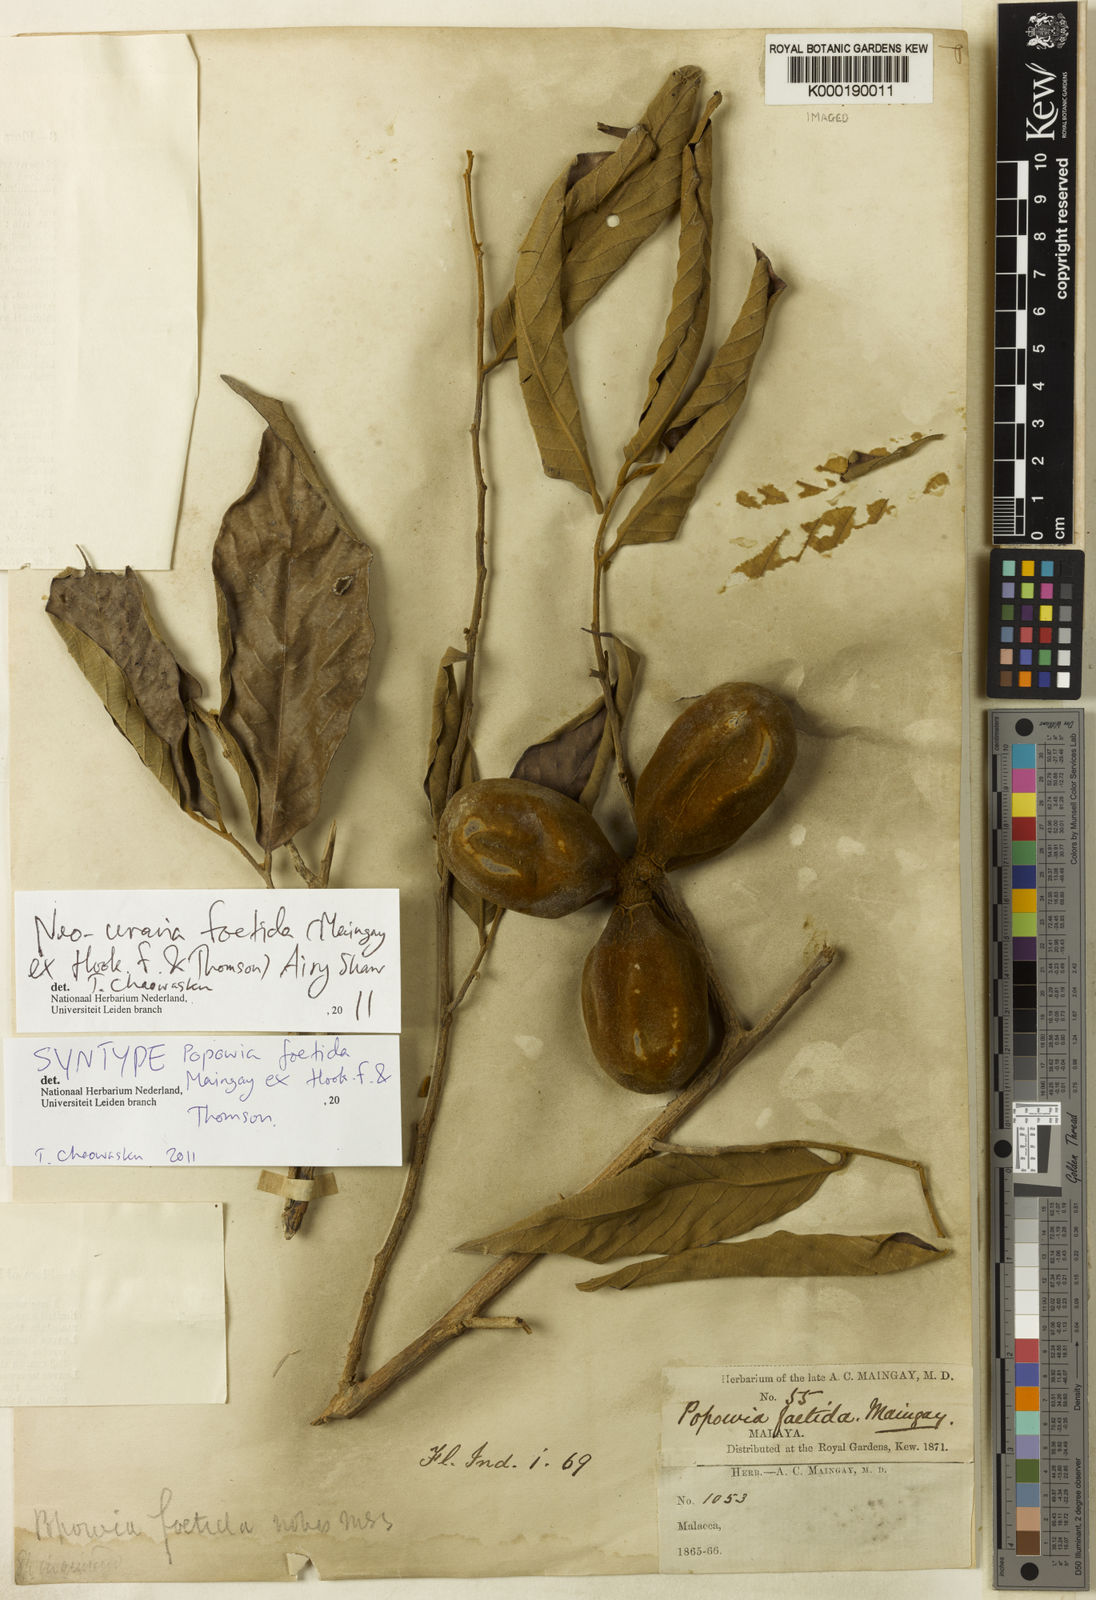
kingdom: Plantae
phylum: Tracheophyta
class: Magnoliopsida
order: Magnoliales
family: Annonaceae
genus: Neouvaria
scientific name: Neouvaria acuminatissima
